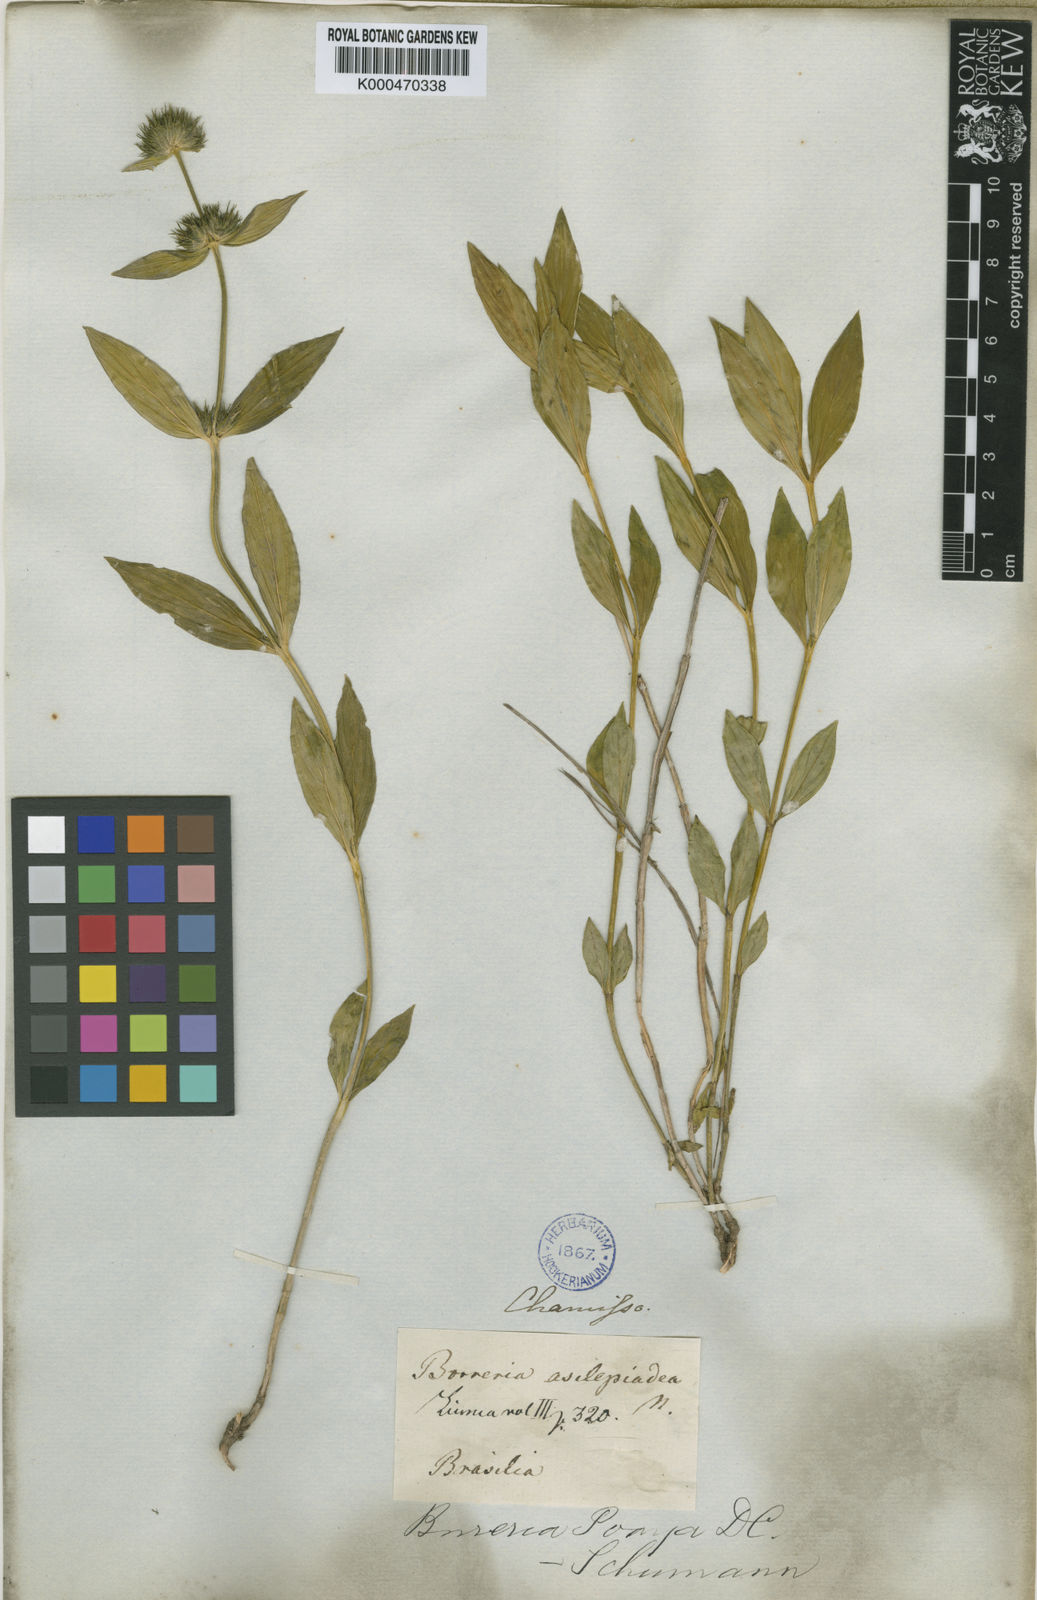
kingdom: Plantae
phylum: Tracheophyta
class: Magnoliopsida
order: Gentianales
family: Rubiaceae
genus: Spermacoce
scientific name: Spermacoce poaya
